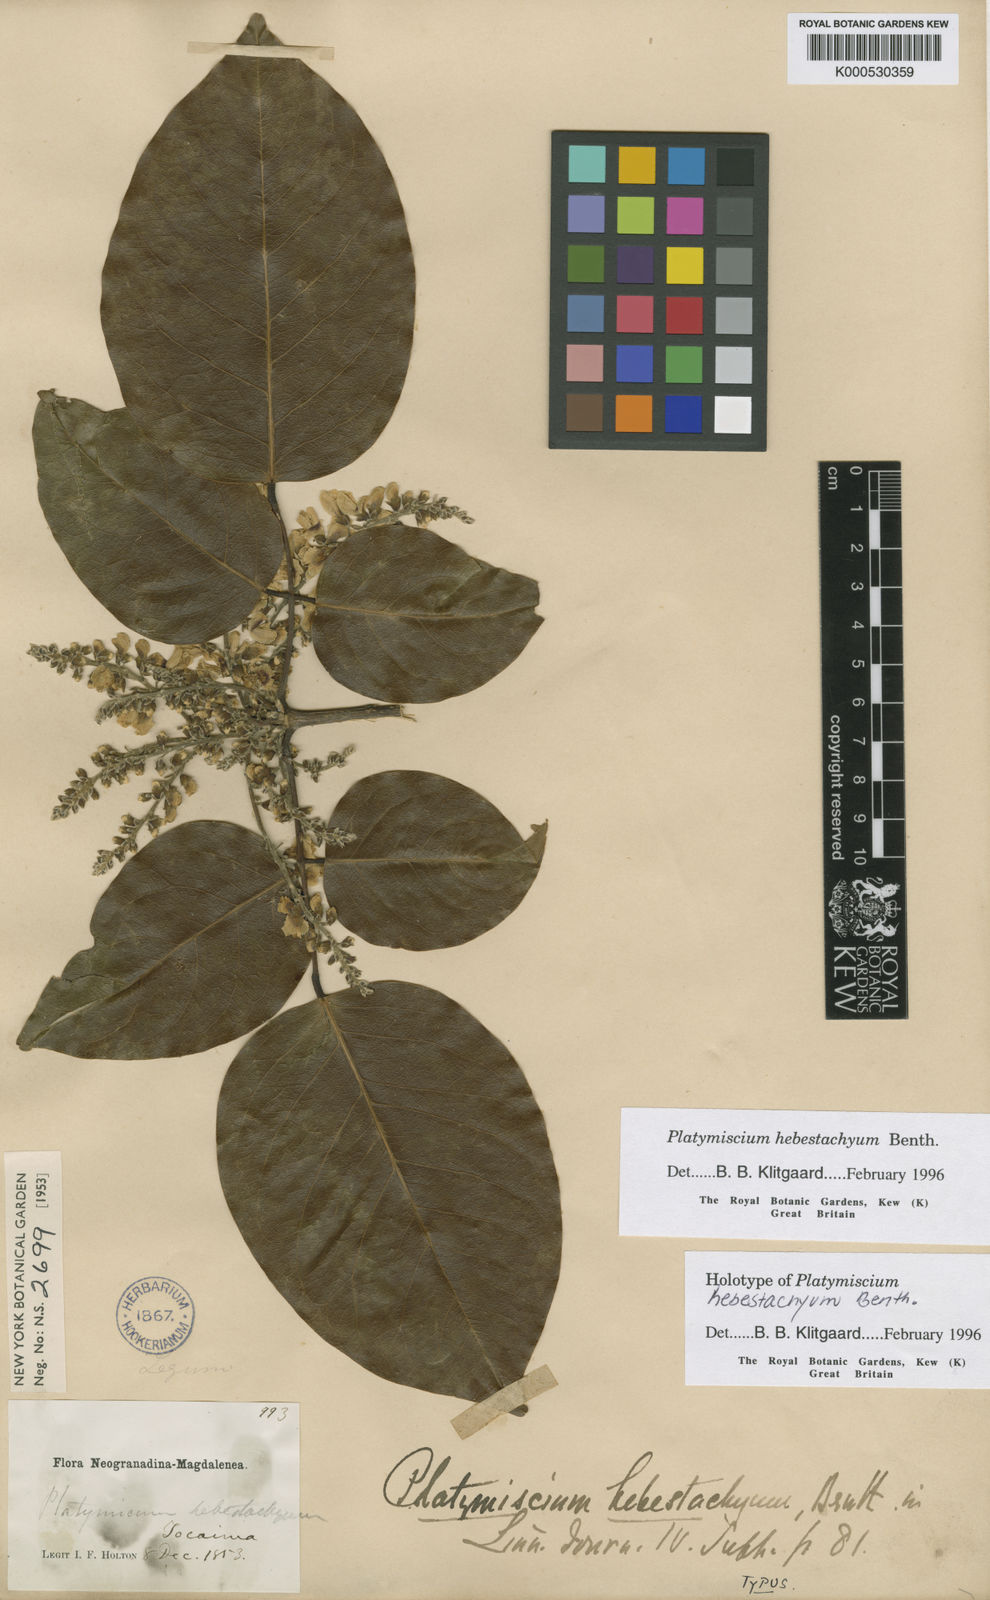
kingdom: Plantae
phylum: Tracheophyta
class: Magnoliopsida
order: Fabales
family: Fabaceae
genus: Platymiscium
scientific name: Platymiscium hebestachyum
